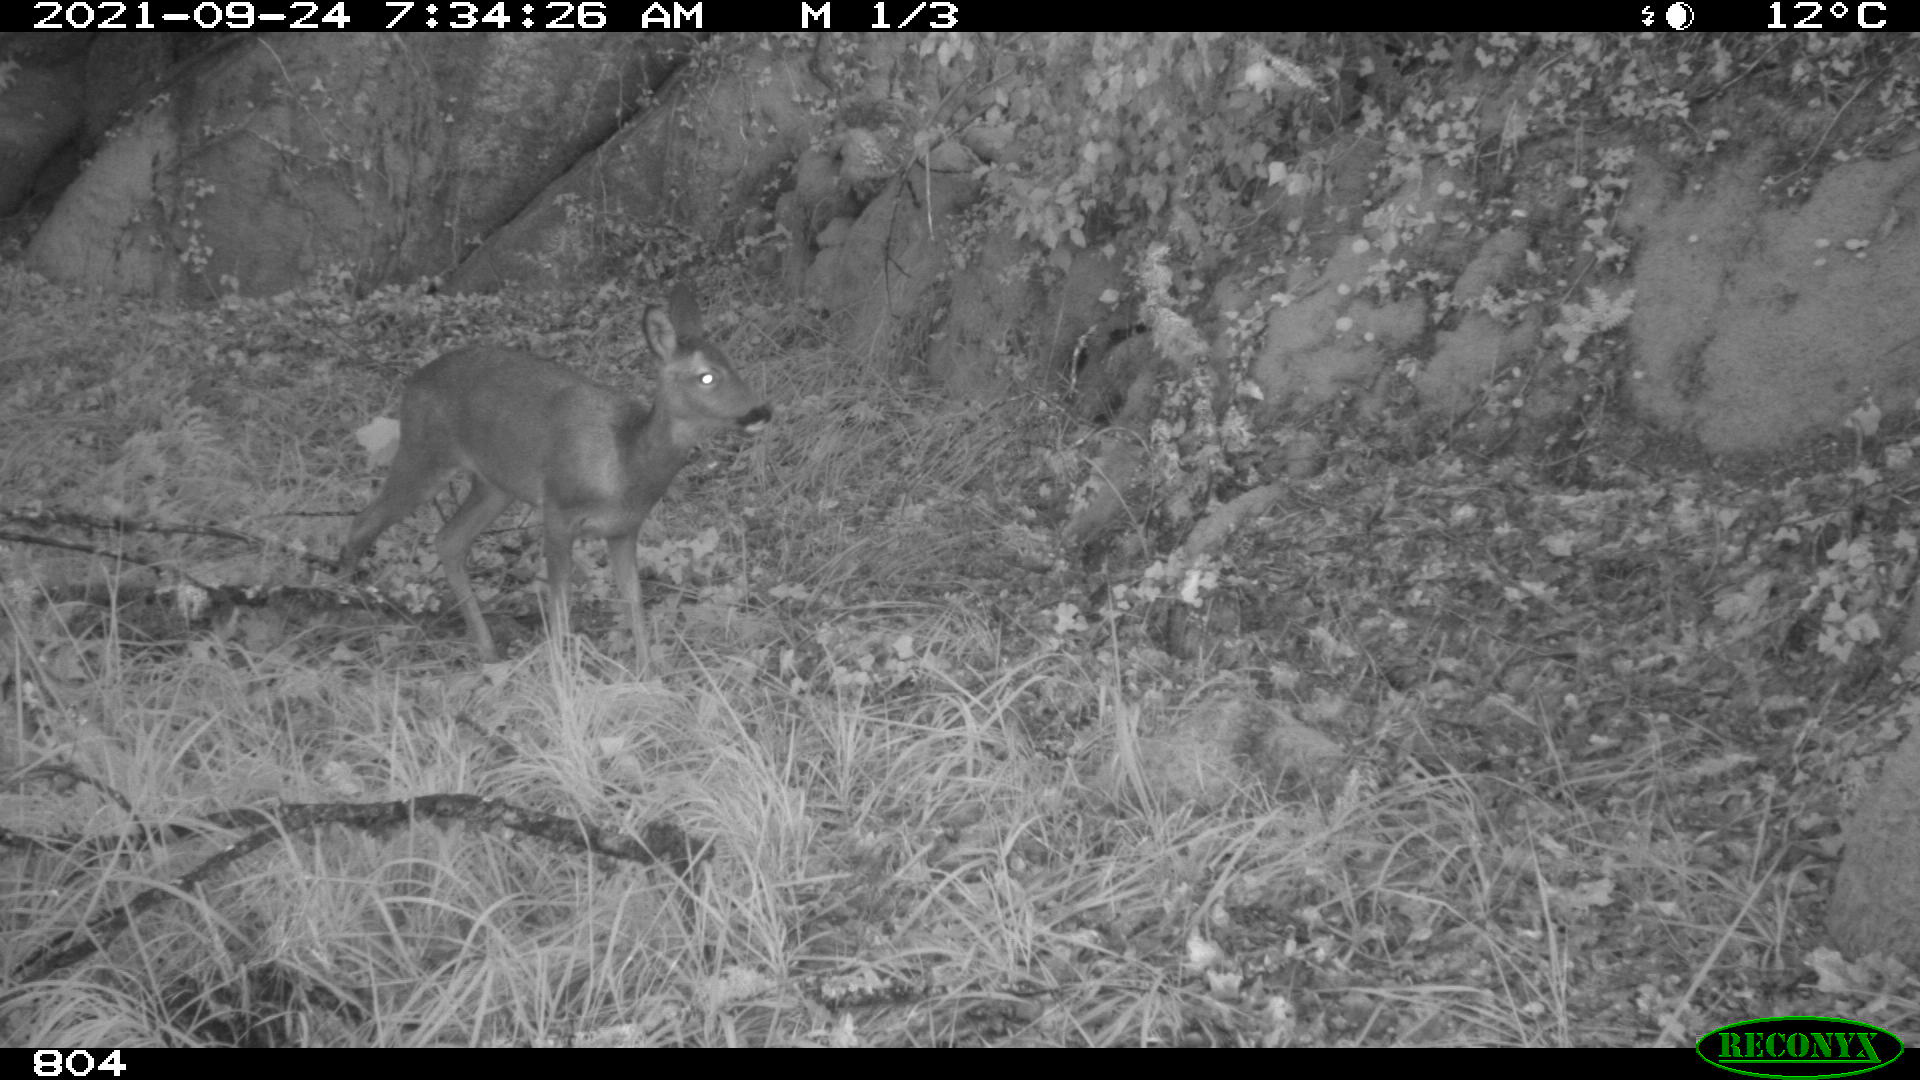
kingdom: Animalia
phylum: Chordata
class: Mammalia
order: Artiodactyla
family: Cervidae
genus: Capreolus
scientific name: Capreolus capreolus
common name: Western roe deer
